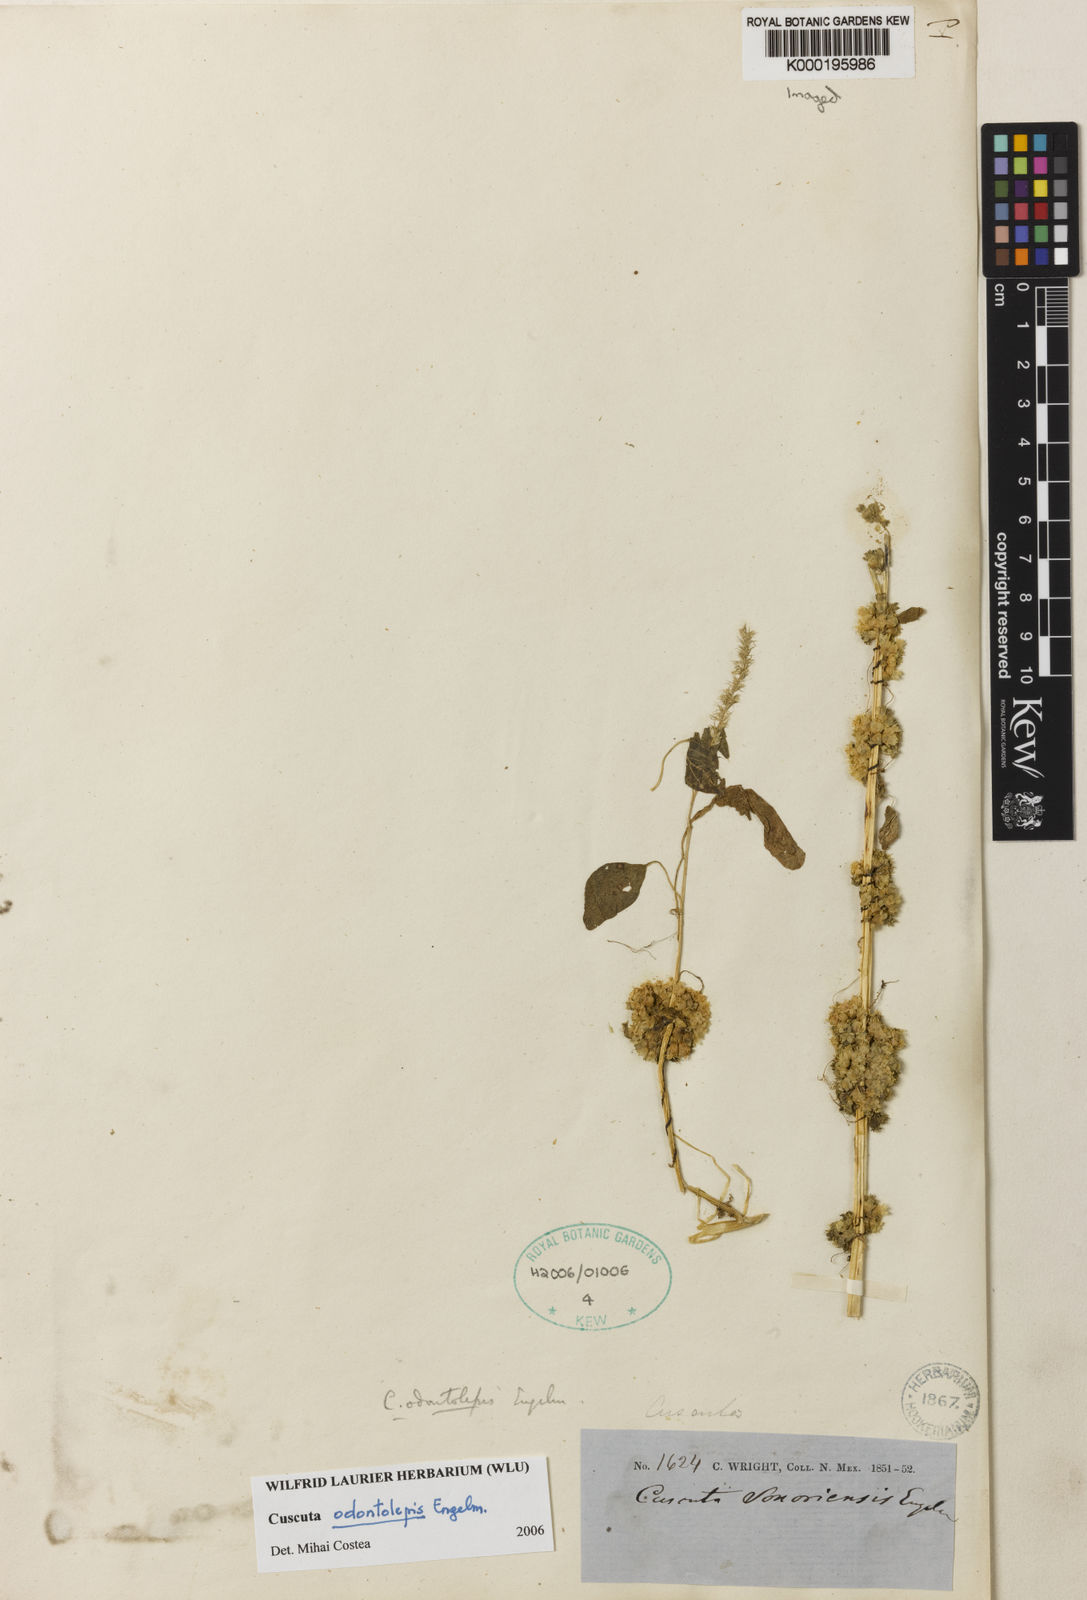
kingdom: Plantae
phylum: Tracheophyta
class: Magnoliopsida
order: Solanales
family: Convolvulaceae
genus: Cuscuta
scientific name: Cuscuta odontolepis
